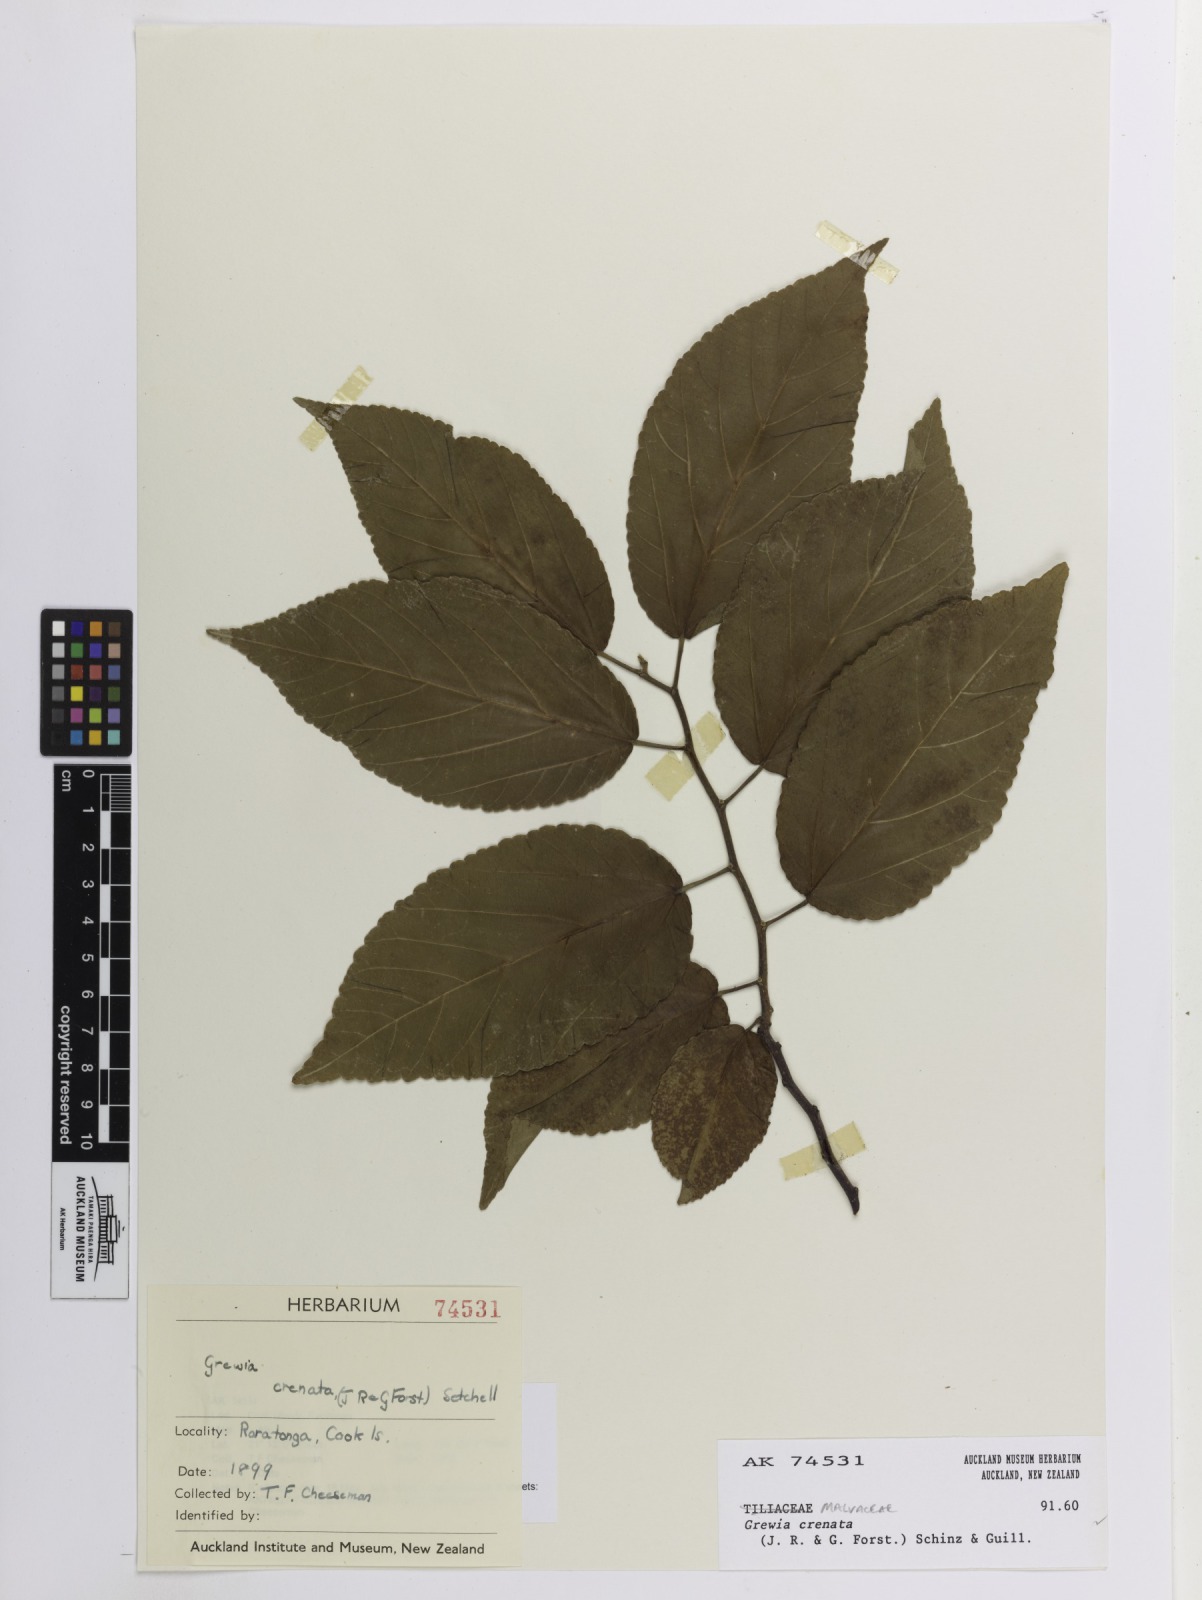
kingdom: Plantae
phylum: Tracheophyta
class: Magnoliopsida
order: Malvales
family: Malvaceae
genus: Grewia
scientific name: Grewia crenata
